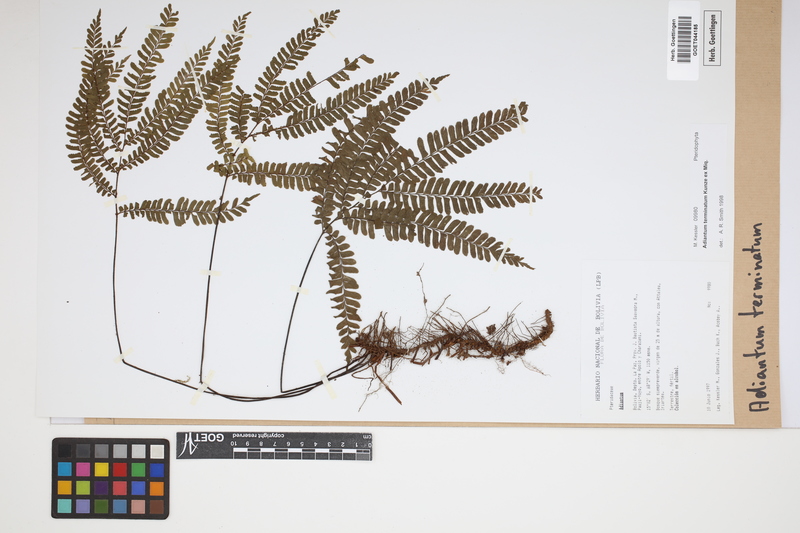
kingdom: Plantae
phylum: Tracheophyta
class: Polypodiopsida
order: Polypodiales
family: Pteridaceae
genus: Adiantum
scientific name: Adiantum terminatum
